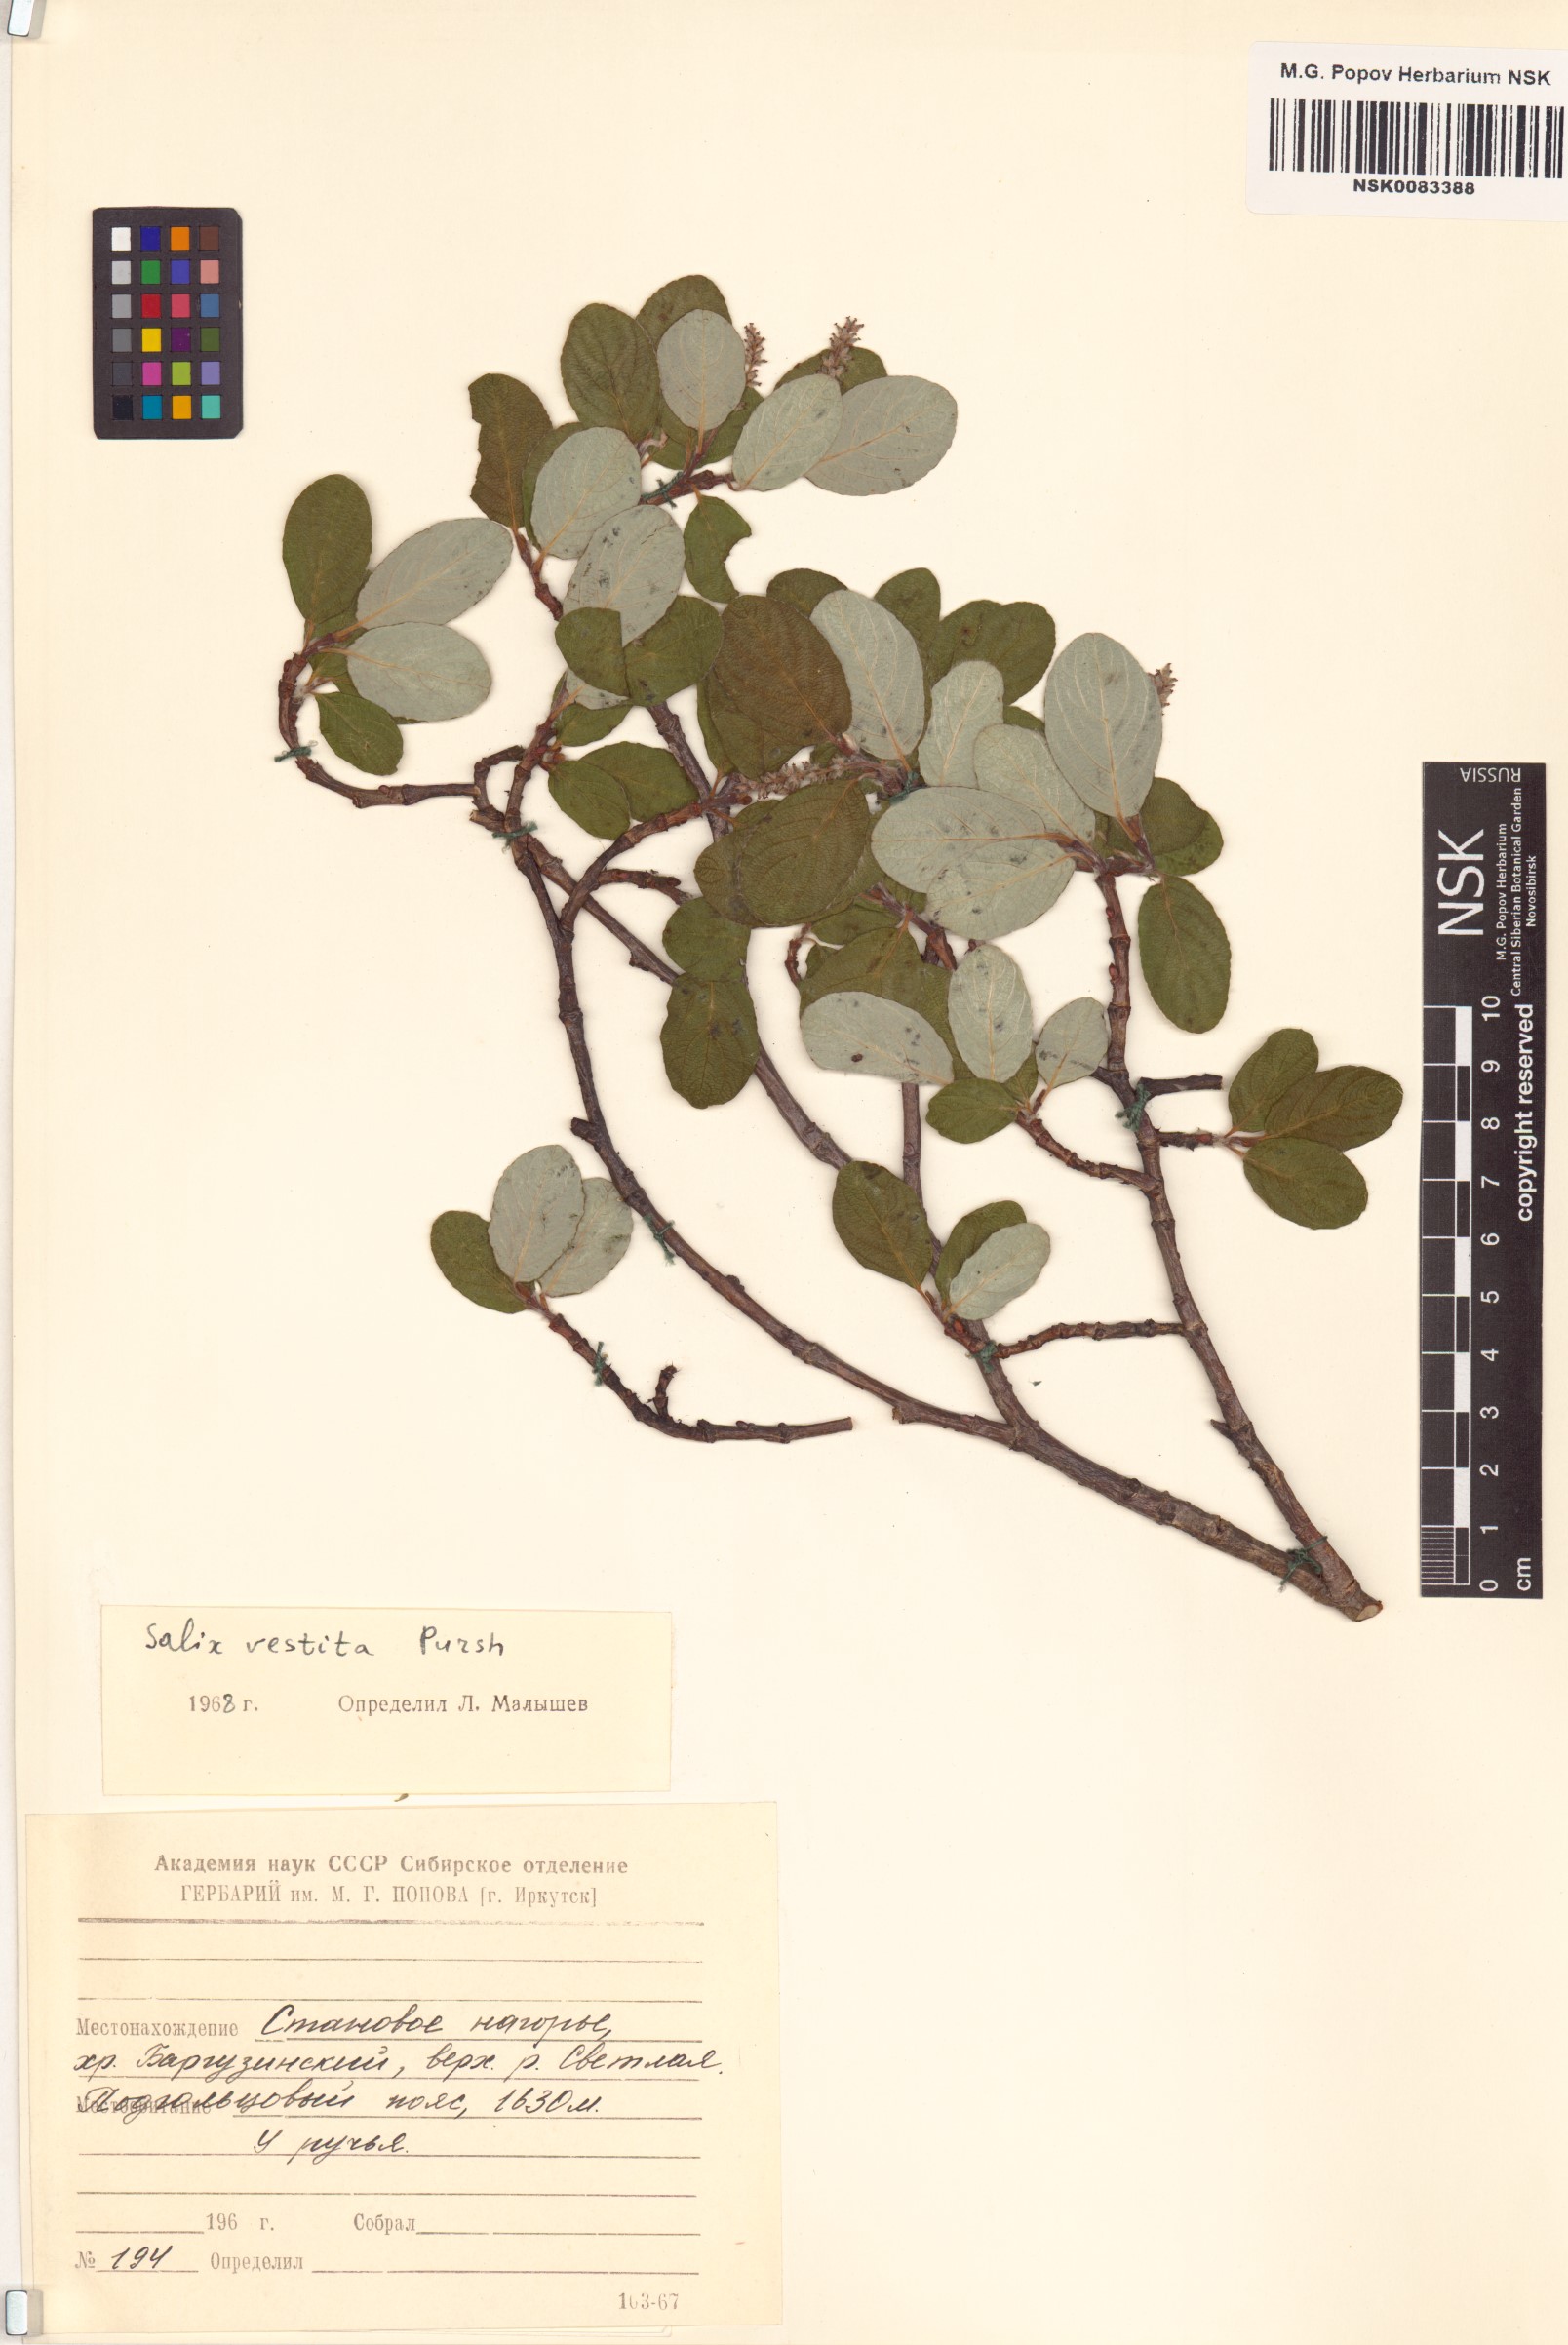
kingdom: Plantae
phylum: Tracheophyta
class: Magnoliopsida
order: Malpighiales
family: Salicaceae
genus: Salix
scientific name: Salix vestita
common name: Hairy willow
